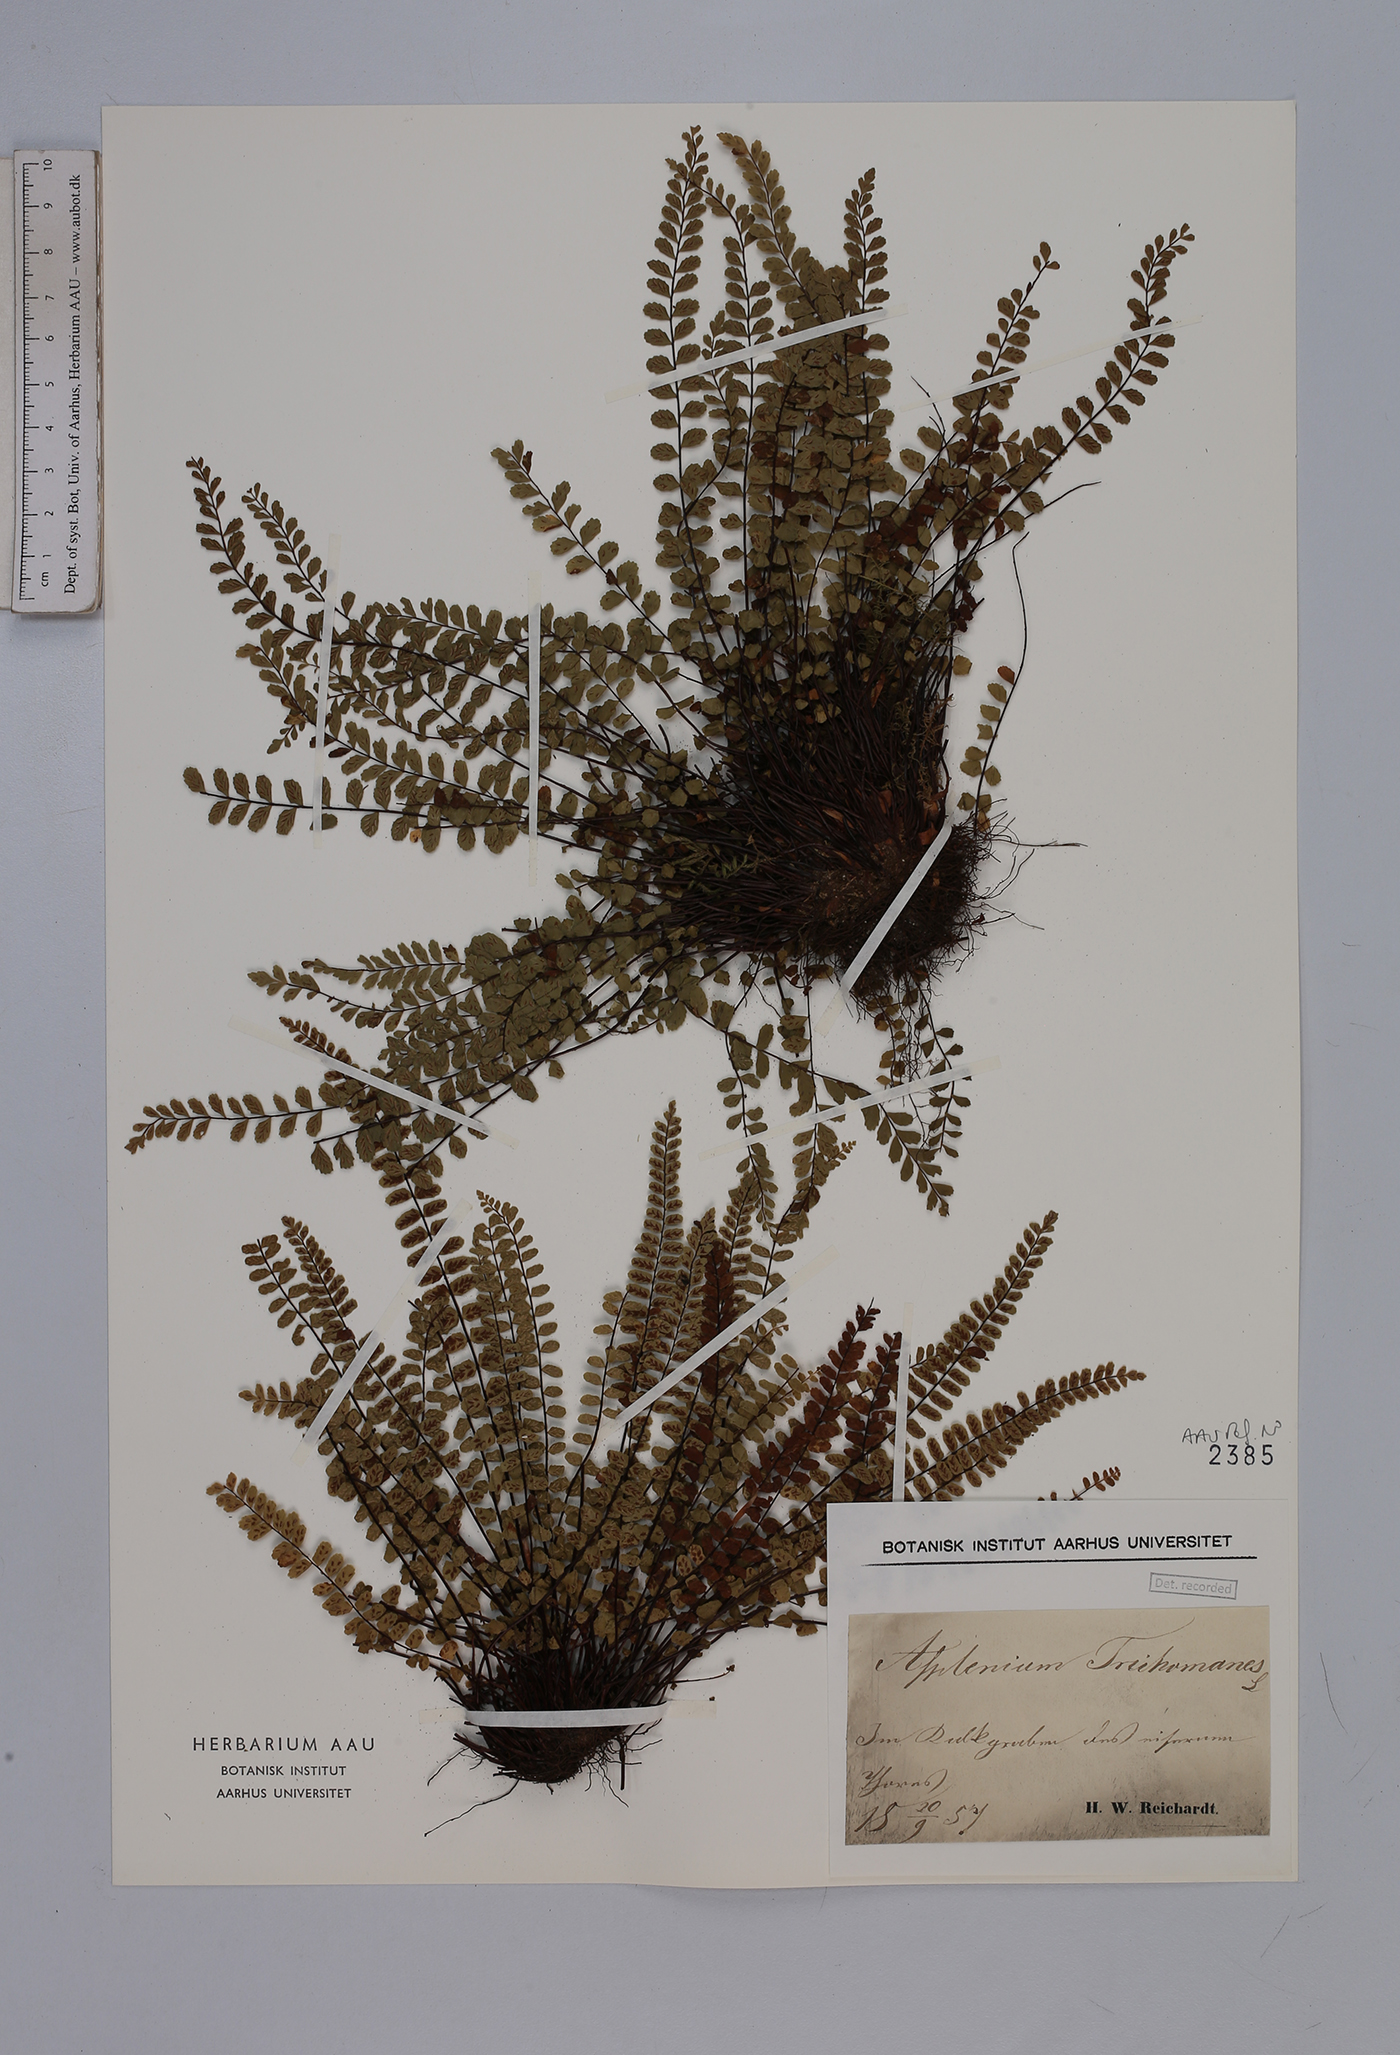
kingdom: Plantae
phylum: Tracheophyta
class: Polypodiopsida
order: Polypodiales
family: Aspleniaceae
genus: Asplenium
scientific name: Asplenium trichomanes
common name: Maidenhair spleenwort
